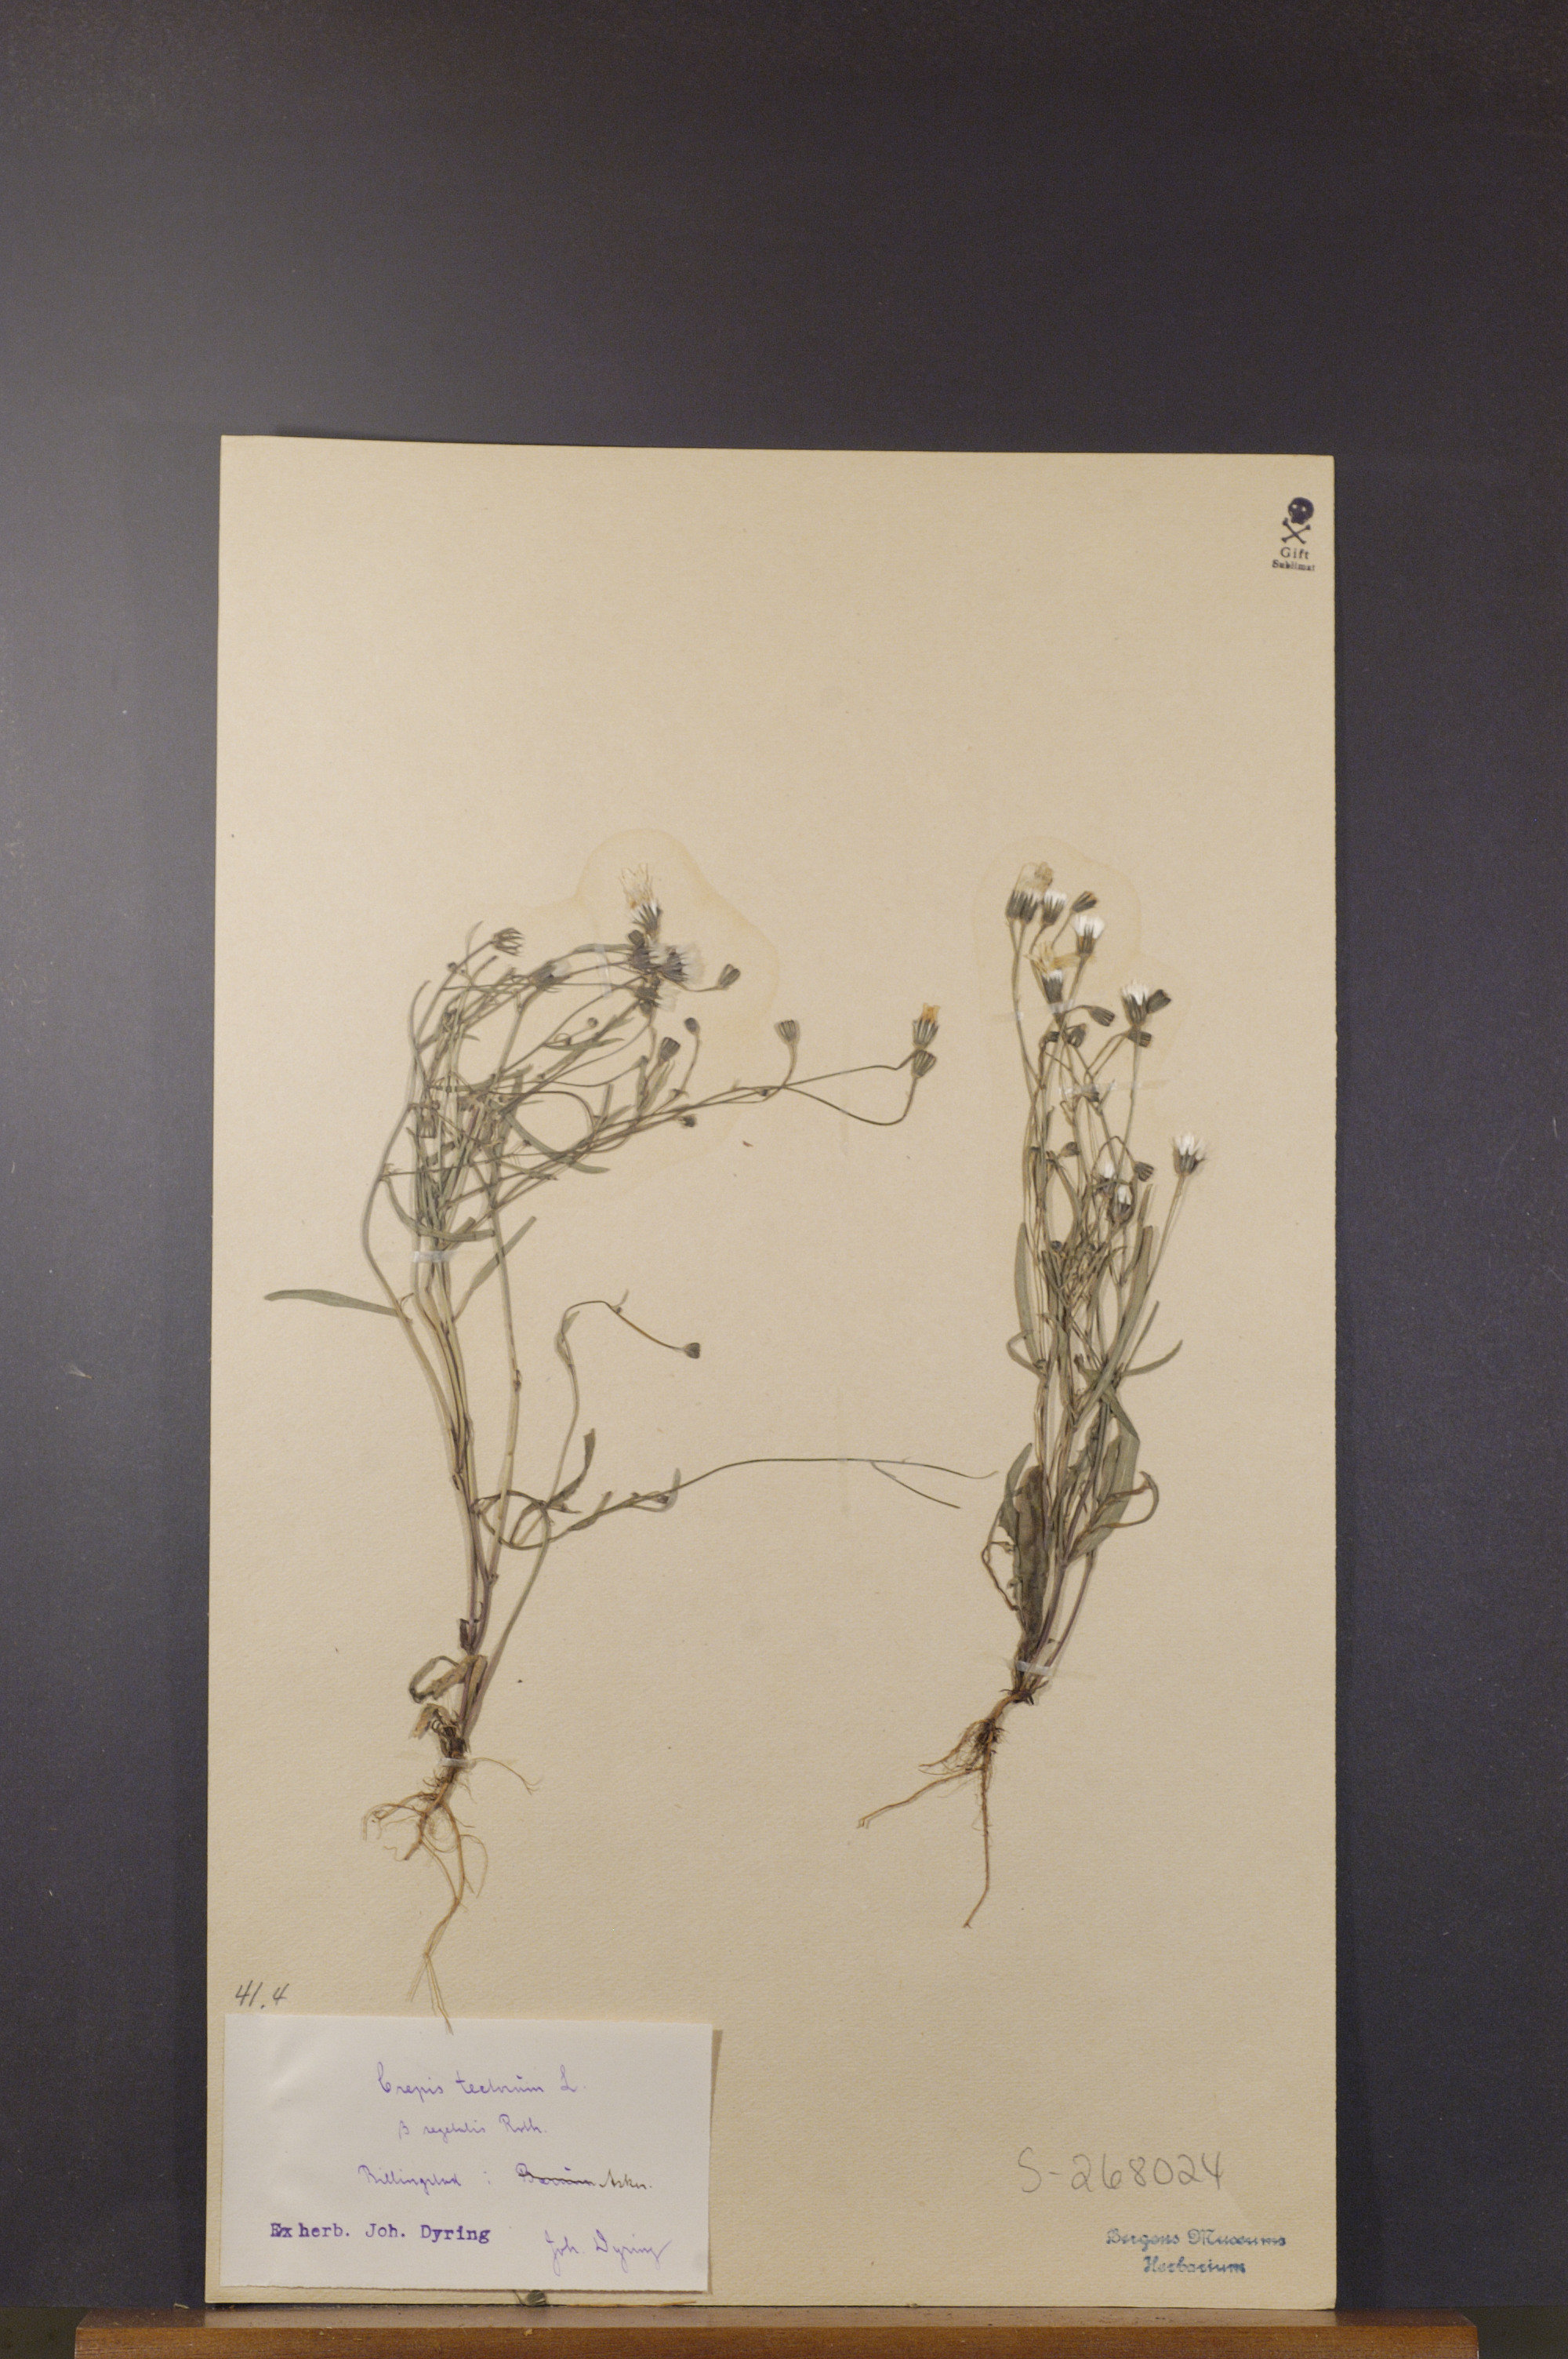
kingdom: Plantae
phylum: Tracheophyta
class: Magnoliopsida
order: Asterales
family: Asteraceae
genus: Crepis
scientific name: Crepis tectorum
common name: Narrow-leaved hawk's-beard
